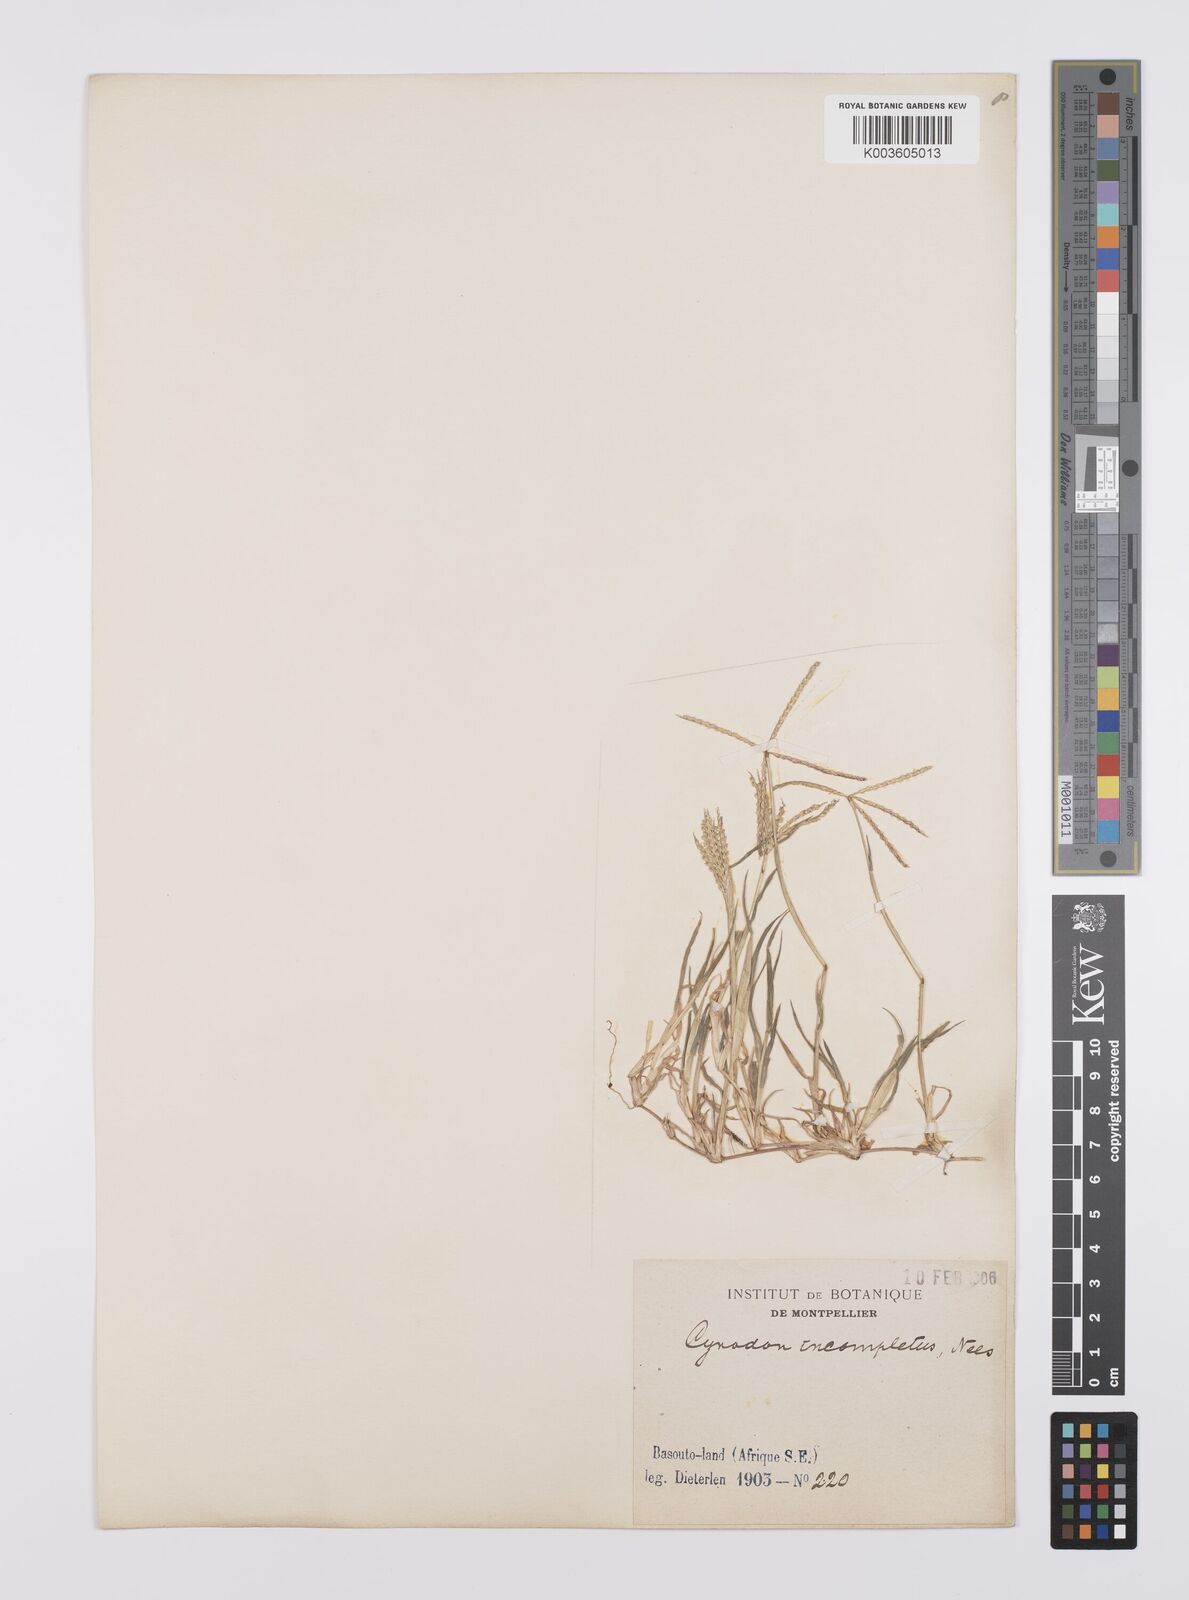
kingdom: Plantae
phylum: Tracheophyta
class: Liliopsida
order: Poales
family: Poaceae
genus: Cynodon
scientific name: Cynodon incompletus
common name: African bermuda-grass
